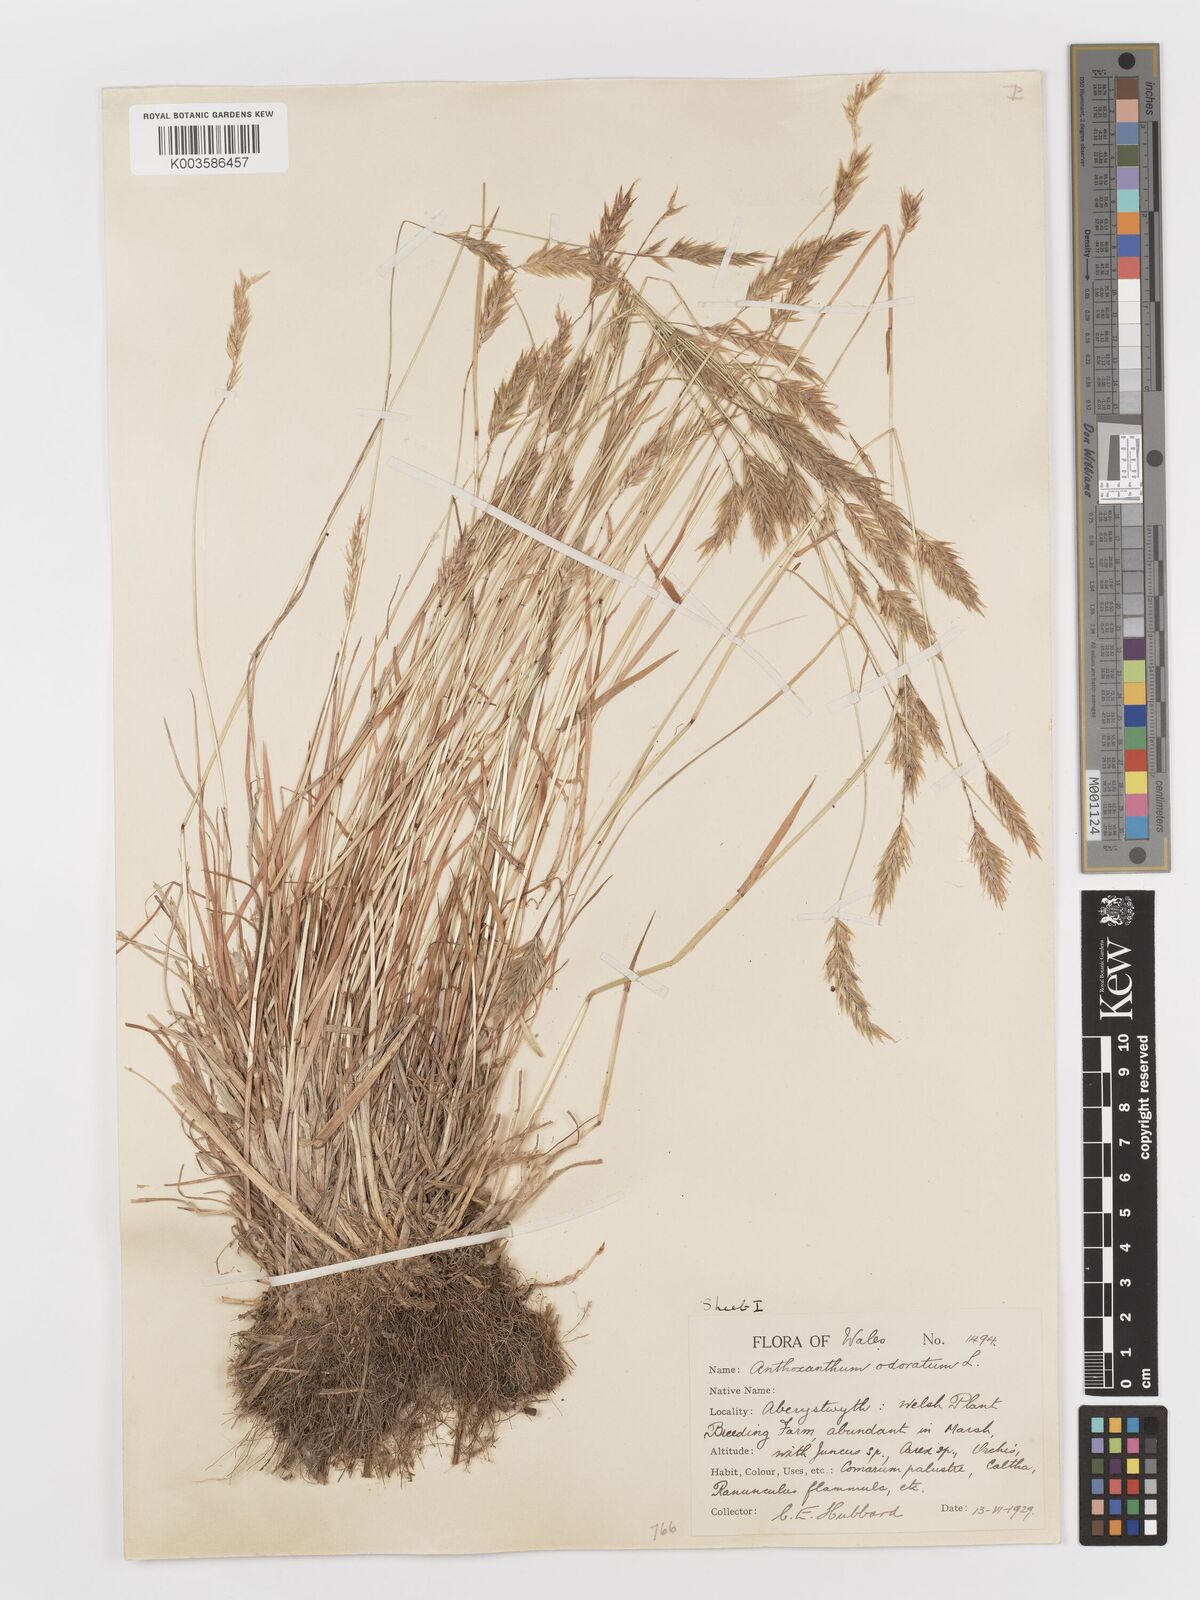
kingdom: Plantae
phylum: Tracheophyta
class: Liliopsida
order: Poales
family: Poaceae
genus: Anthoxanthum
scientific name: Anthoxanthum odoratum
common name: Sweet vernalgrass
